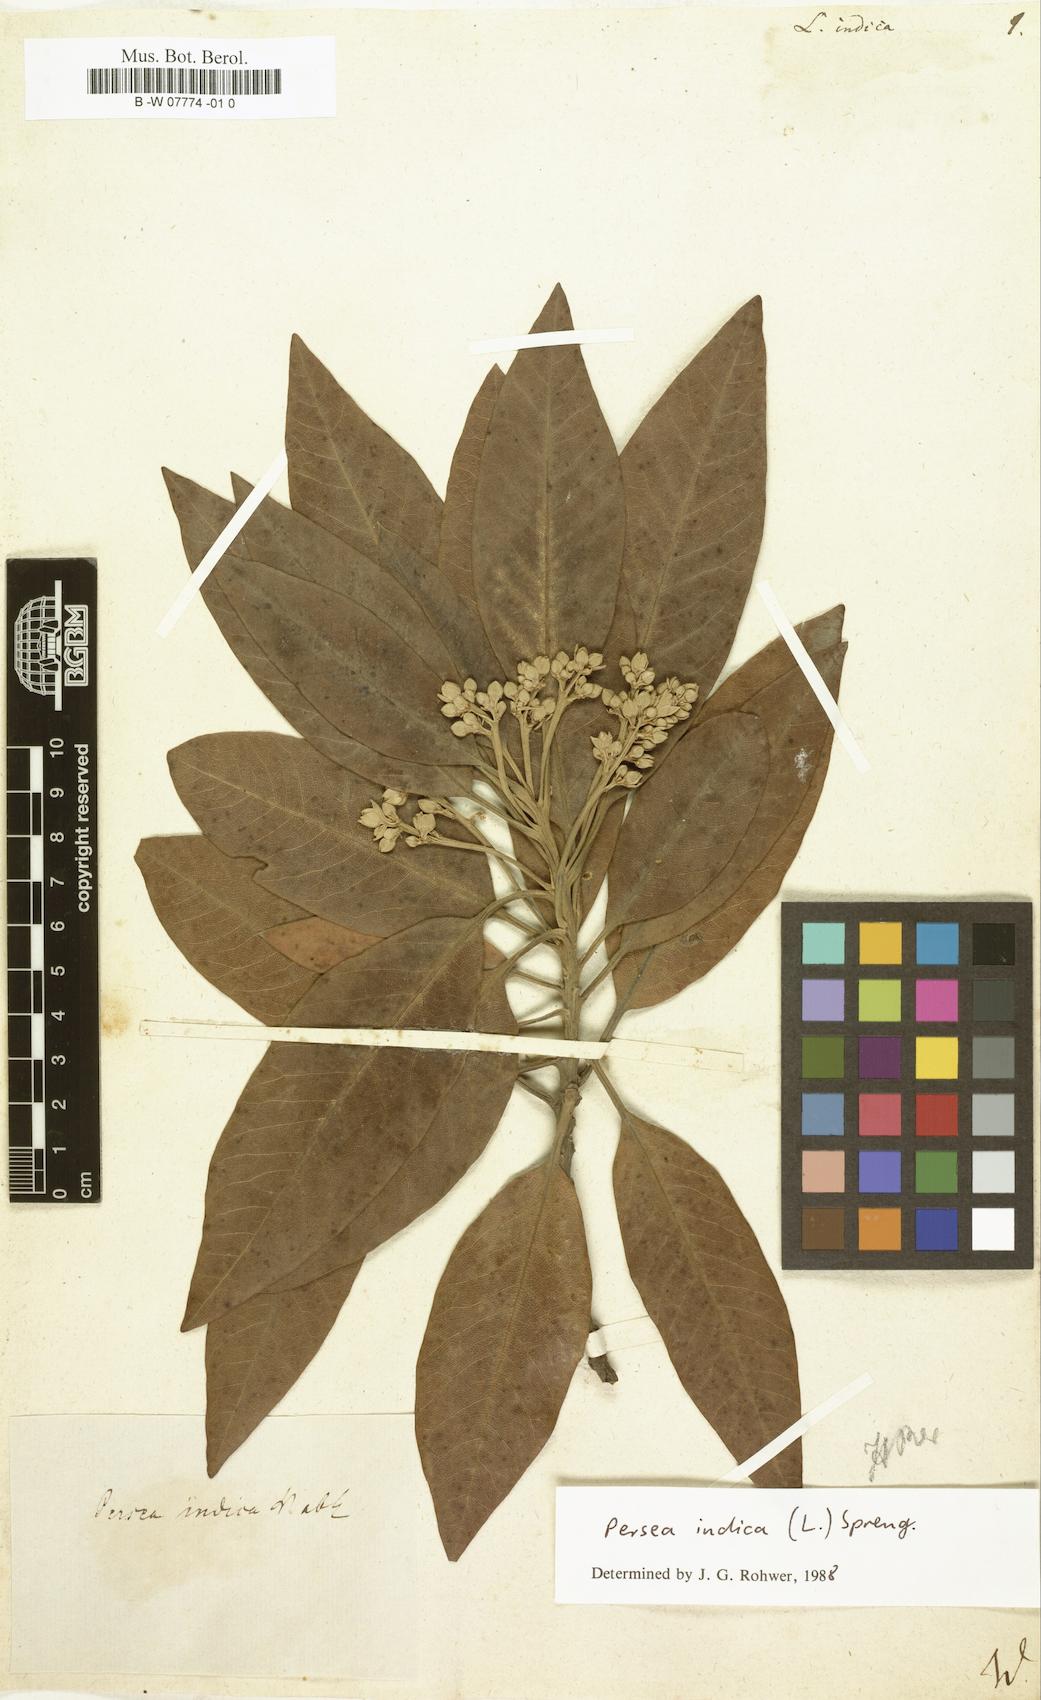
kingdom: Plantae
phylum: Tracheophyta
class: Magnoliopsida
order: Laurales
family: Lauraceae
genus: Persea
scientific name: Persea indica
